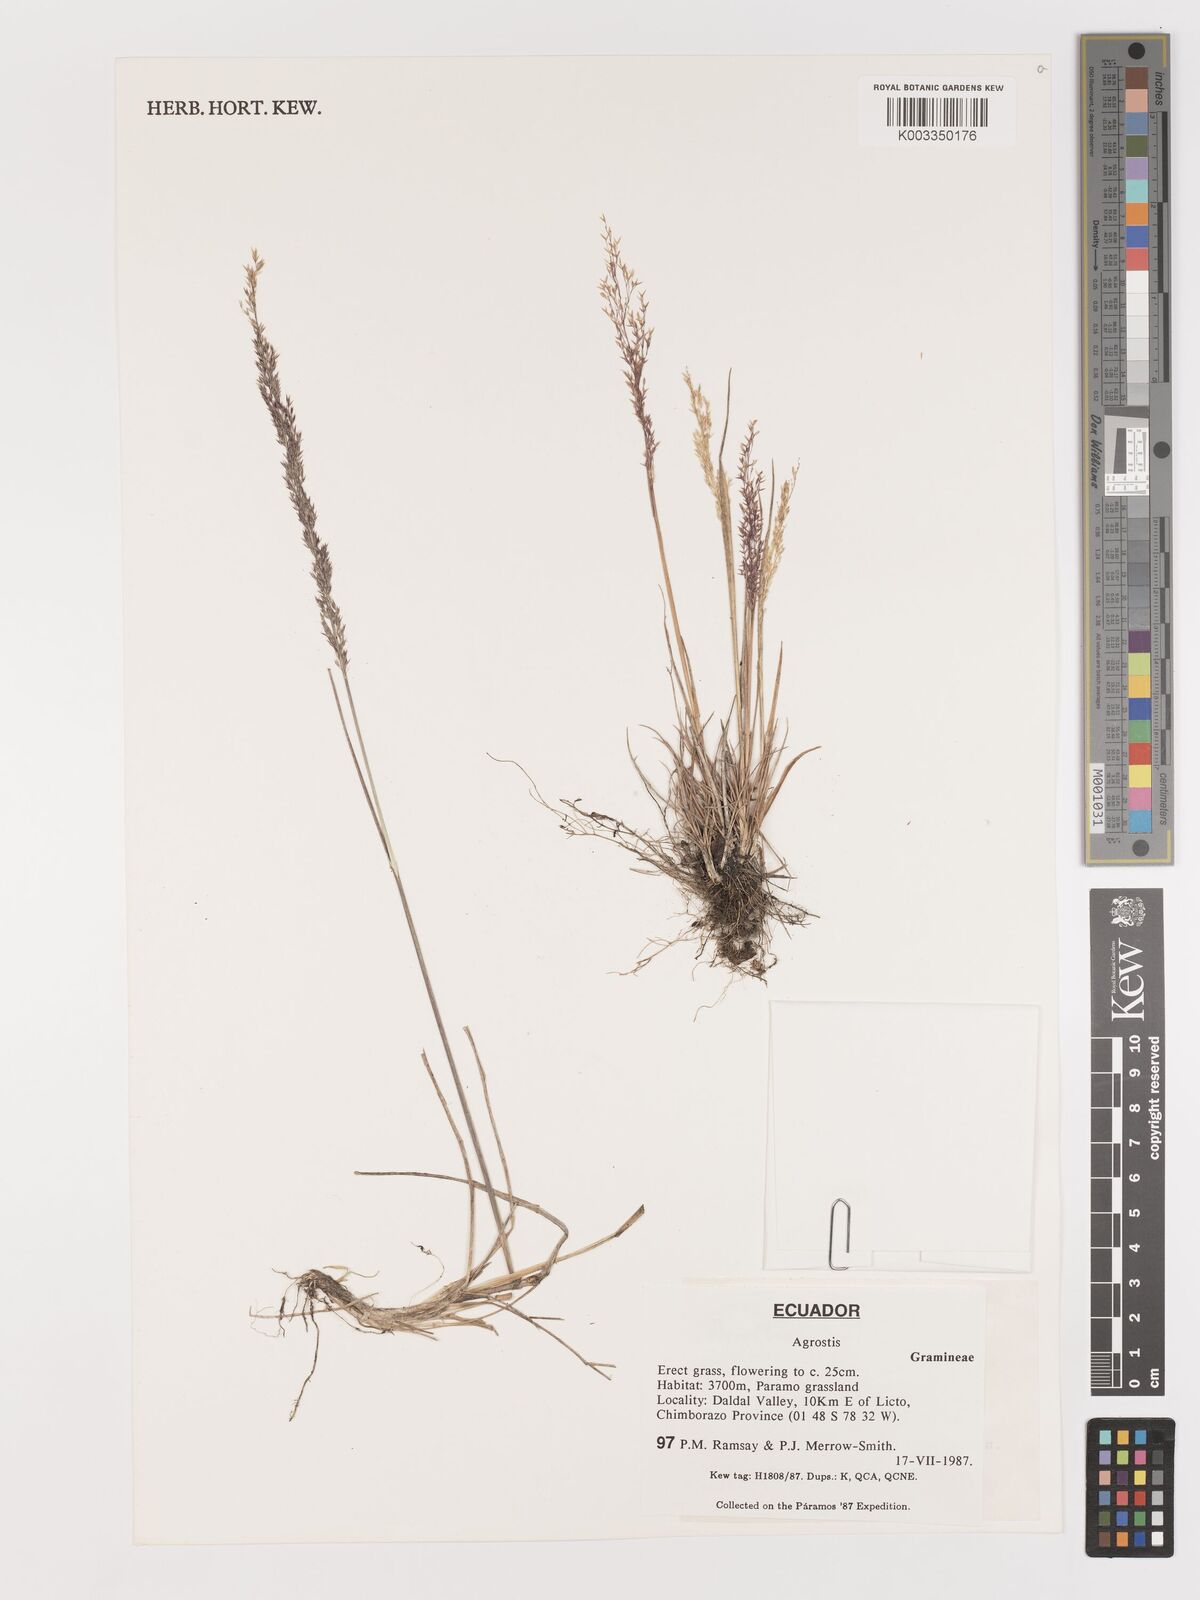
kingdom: Plantae
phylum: Tracheophyta
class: Liliopsida
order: Poales
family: Poaceae
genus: Agrostis
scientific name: Agrostis
